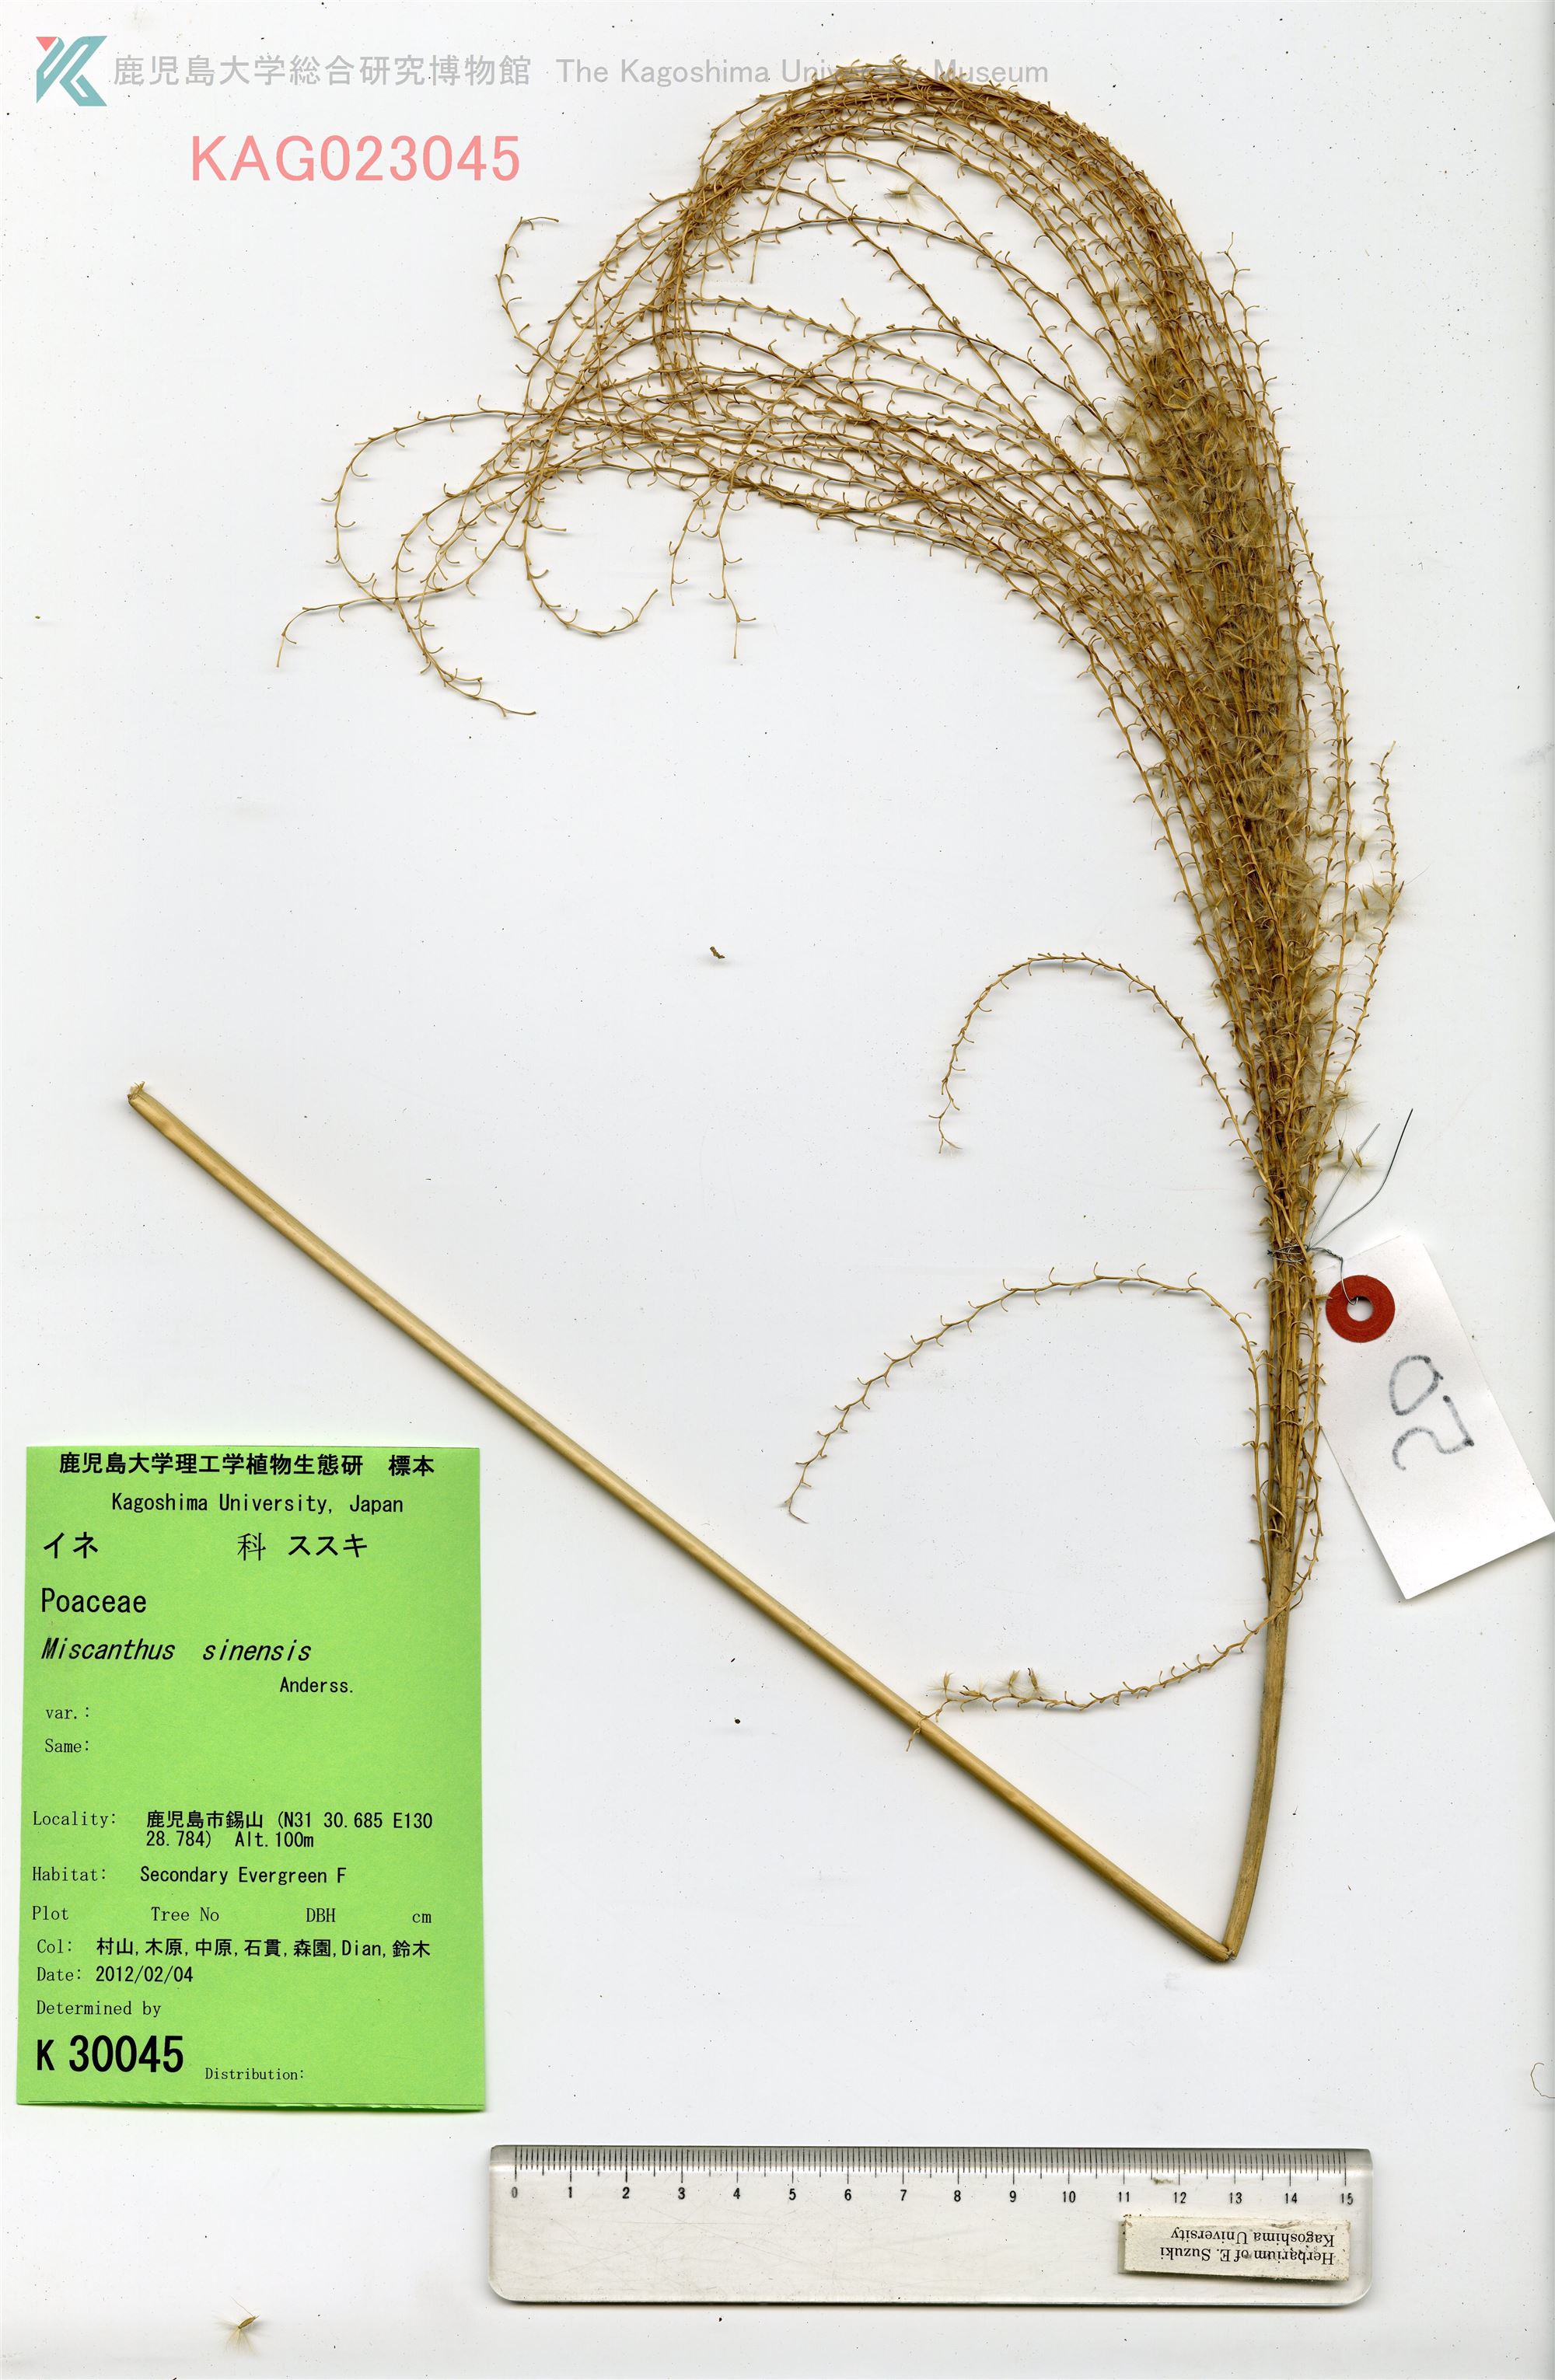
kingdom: Plantae
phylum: Tracheophyta
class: Liliopsida
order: Poales
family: Poaceae
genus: Miscanthus
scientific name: Miscanthus sinensis
